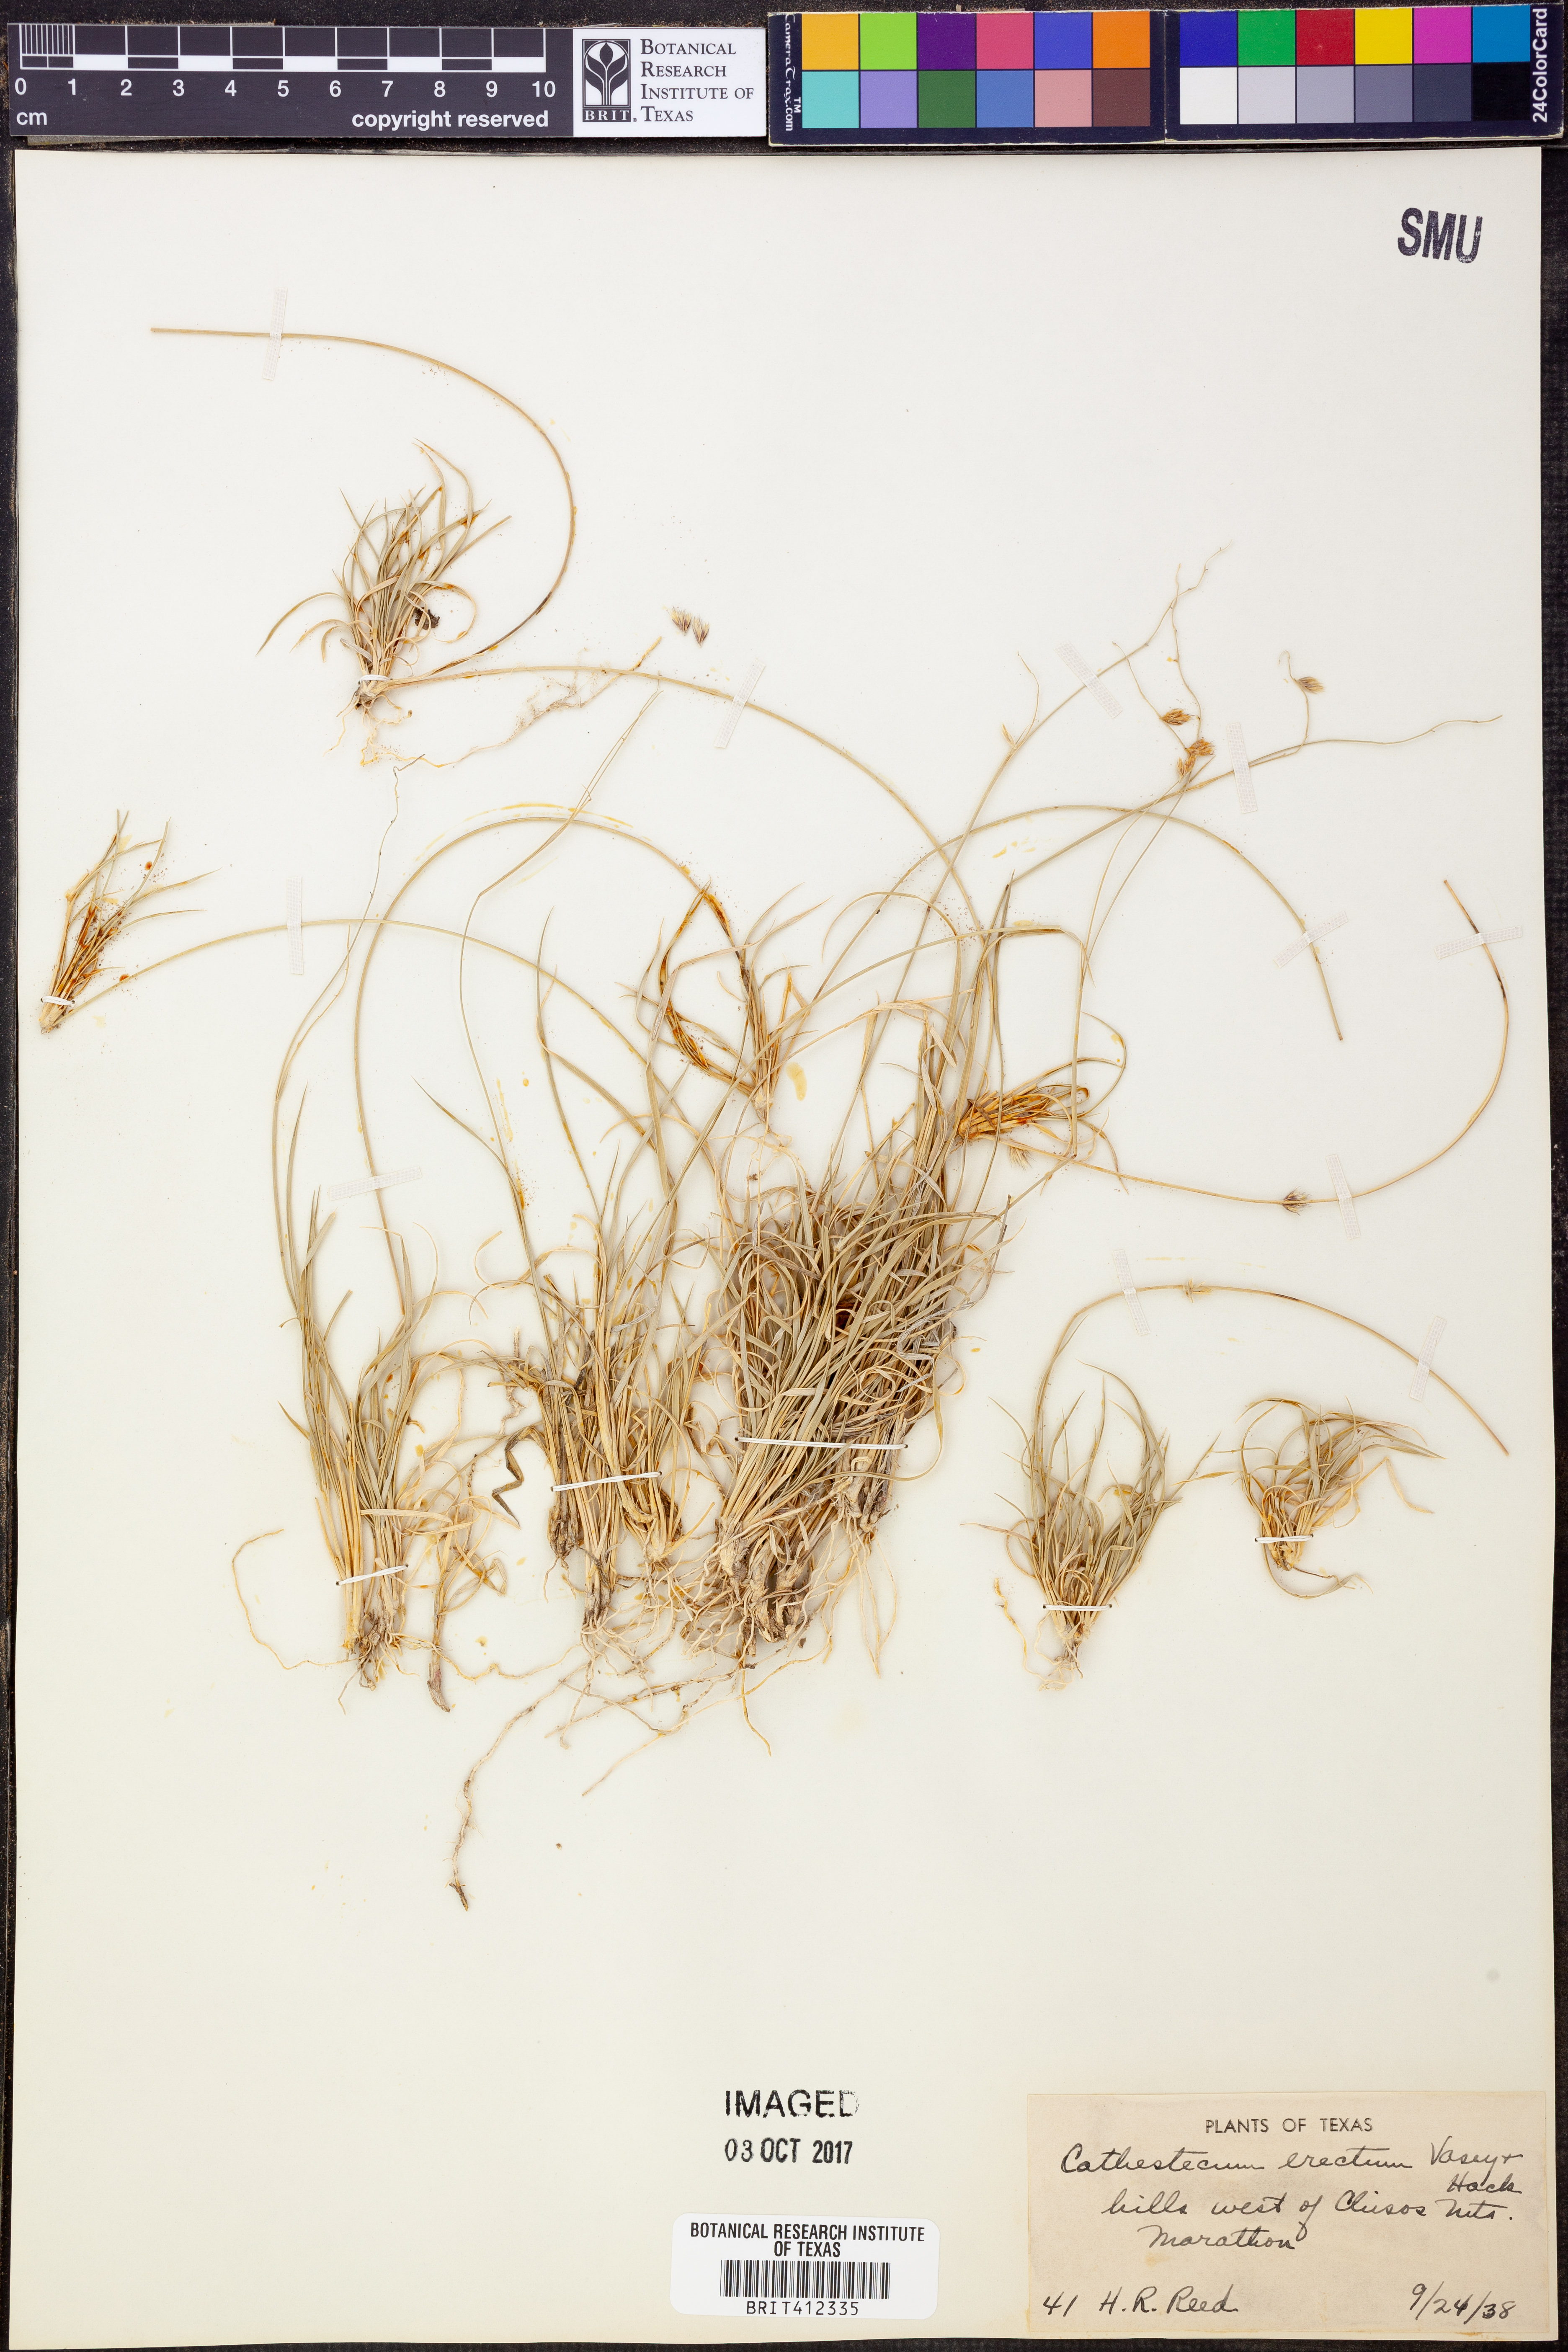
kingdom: Plantae
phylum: Tracheophyta
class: Liliopsida
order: Poales
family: Poaceae
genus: Bouteloua
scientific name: Bouteloua erecta
